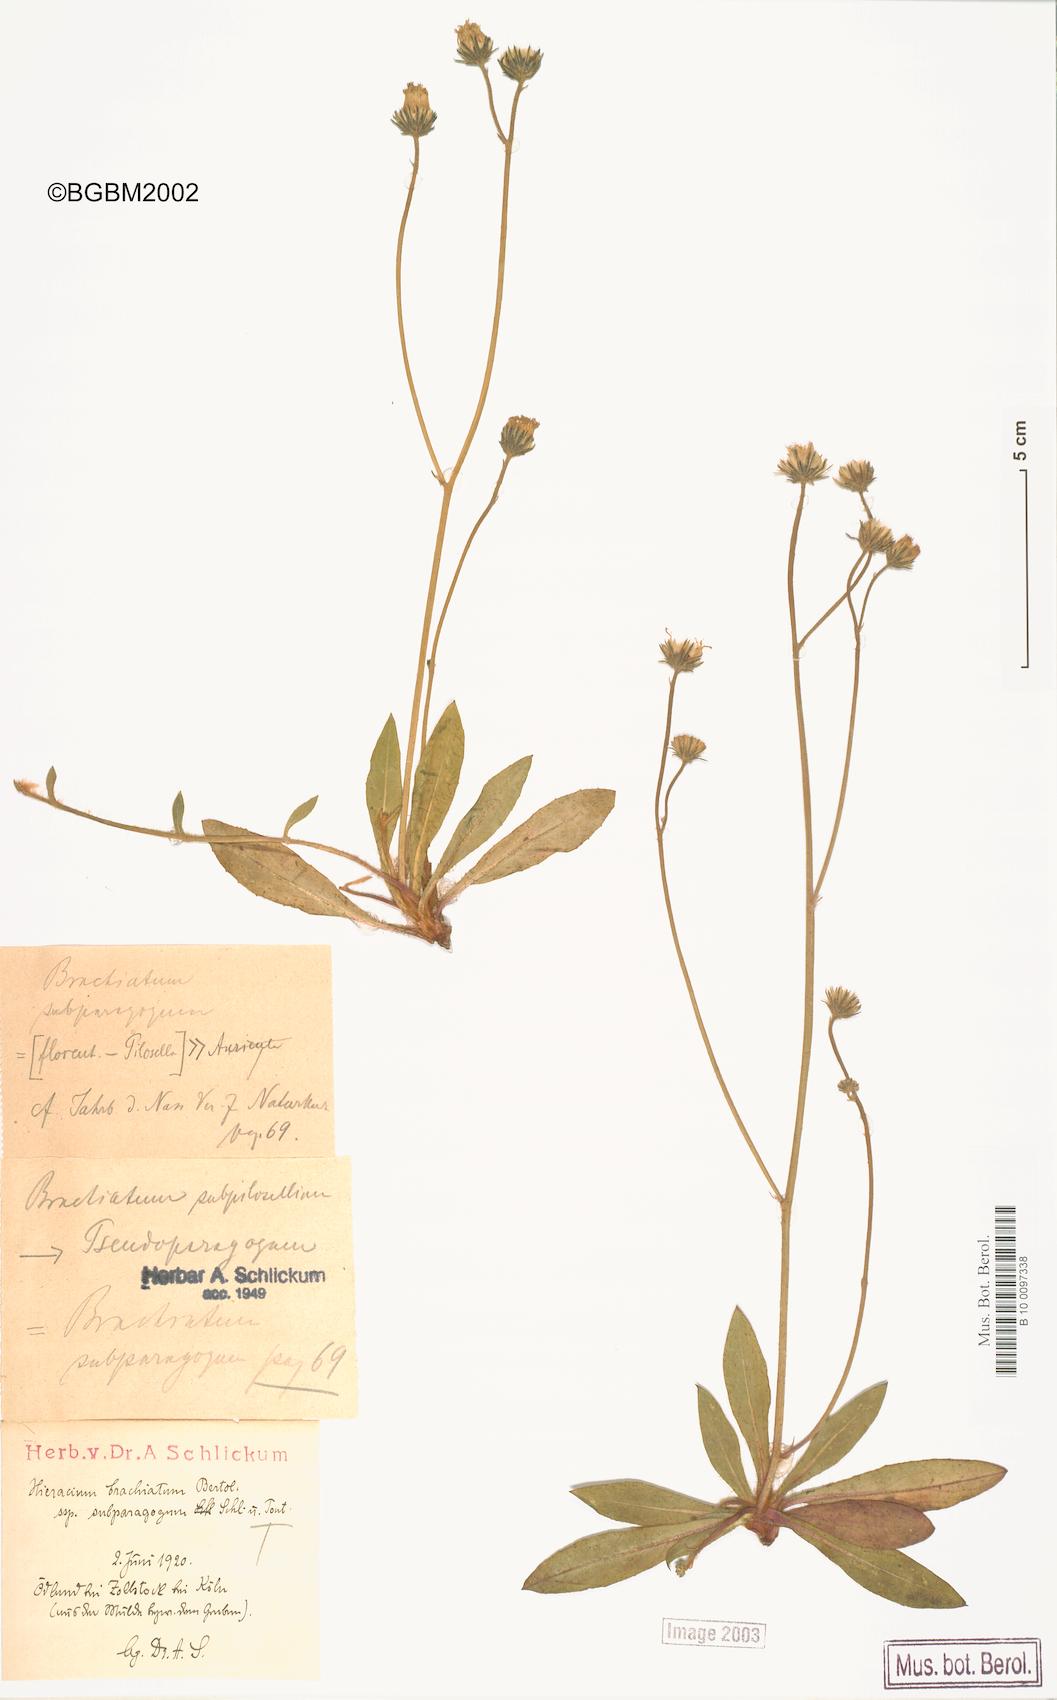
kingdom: Plantae
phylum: Tracheophyta
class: Magnoliopsida
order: Asterales
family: Asteraceae
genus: Pilosella
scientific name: Pilosella acutifolia
